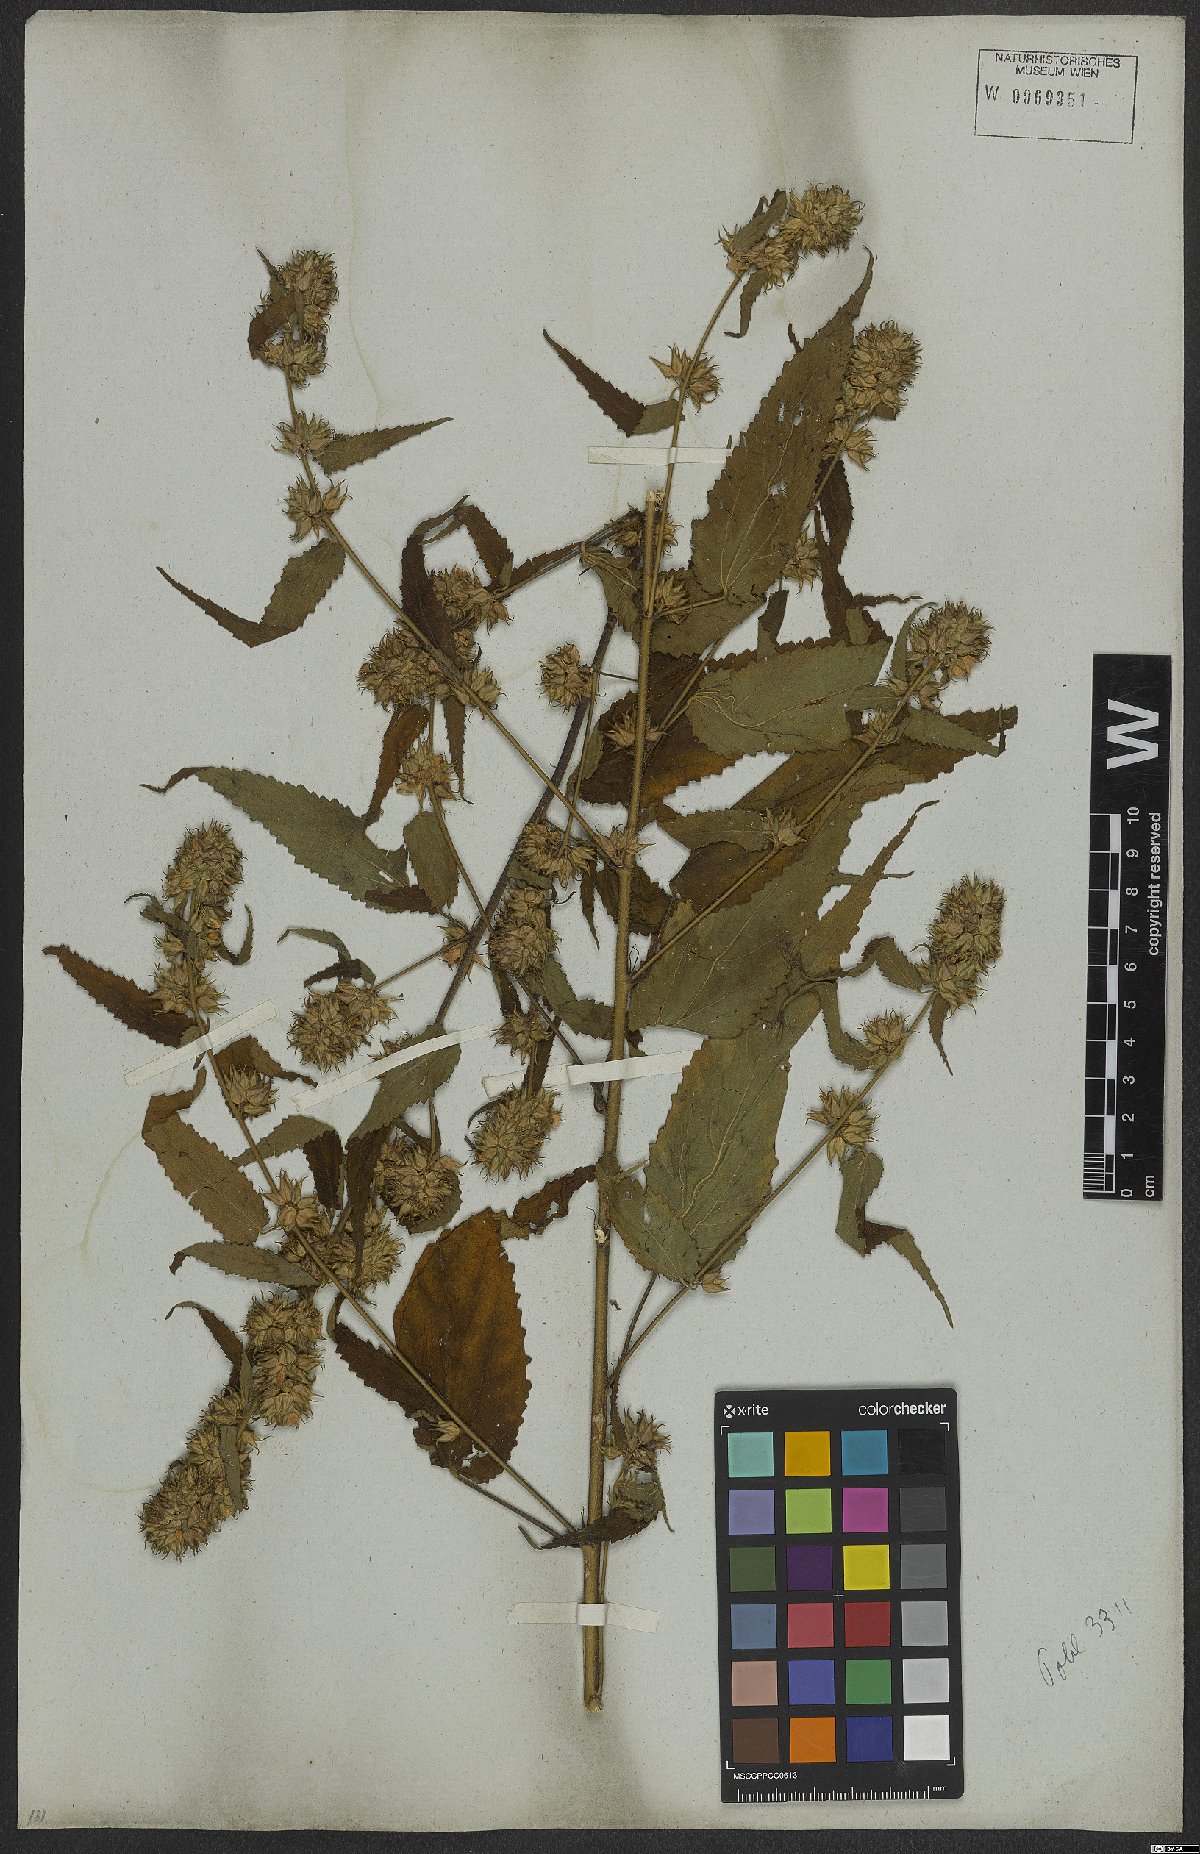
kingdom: Plantae
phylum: Tracheophyta
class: Magnoliopsida
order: Malvales
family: Malvaceae
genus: Sida
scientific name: Sida caudata
